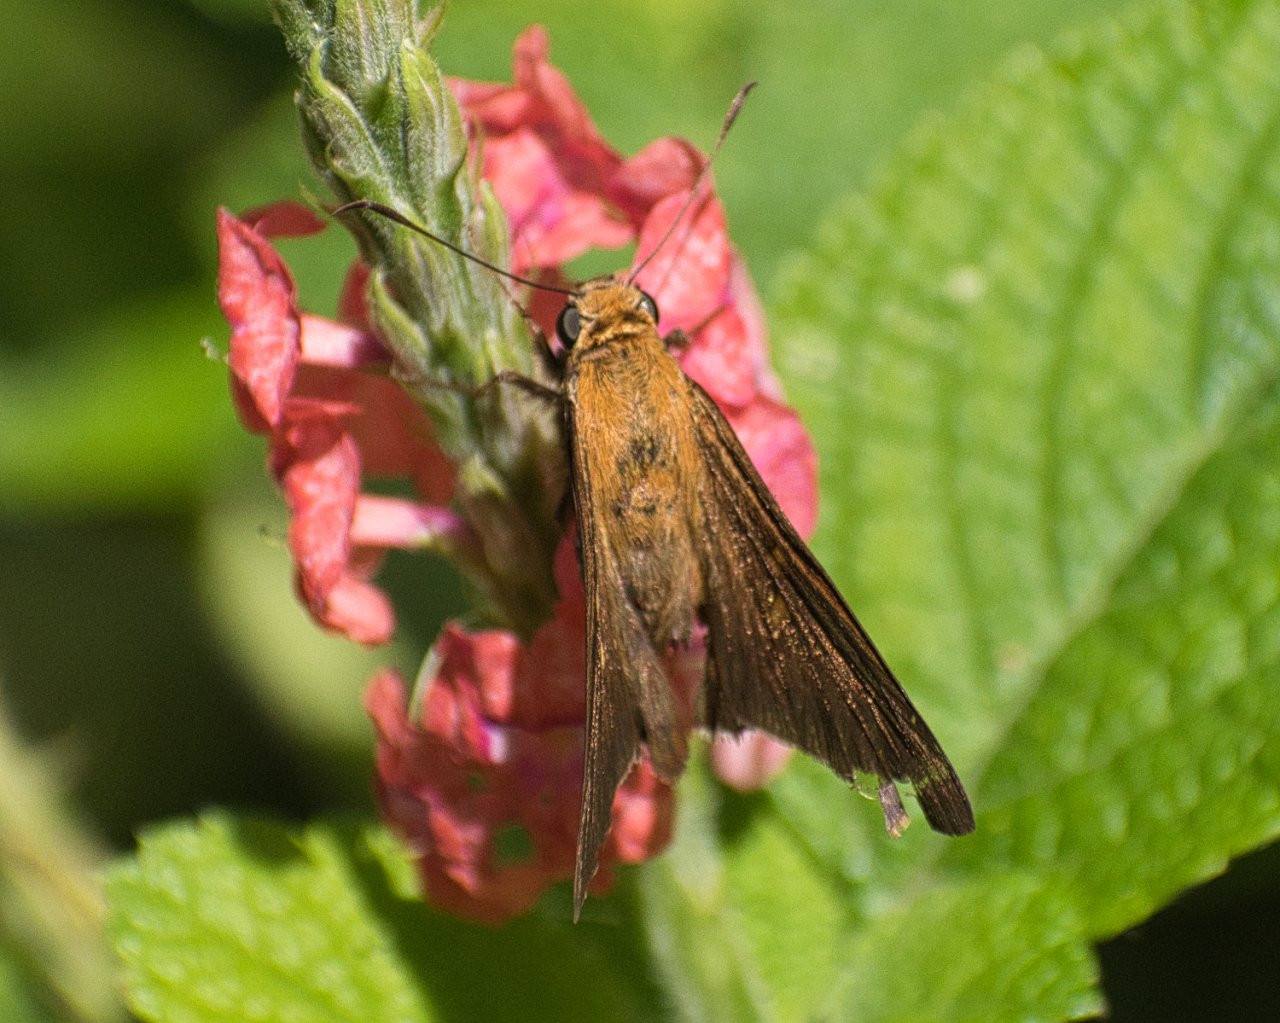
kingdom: Animalia
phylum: Arthropoda
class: Insecta
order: Lepidoptera
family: Hesperiidae
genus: Epargyreus
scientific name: Epargyreus exadeus
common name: Broken Silverdrop
